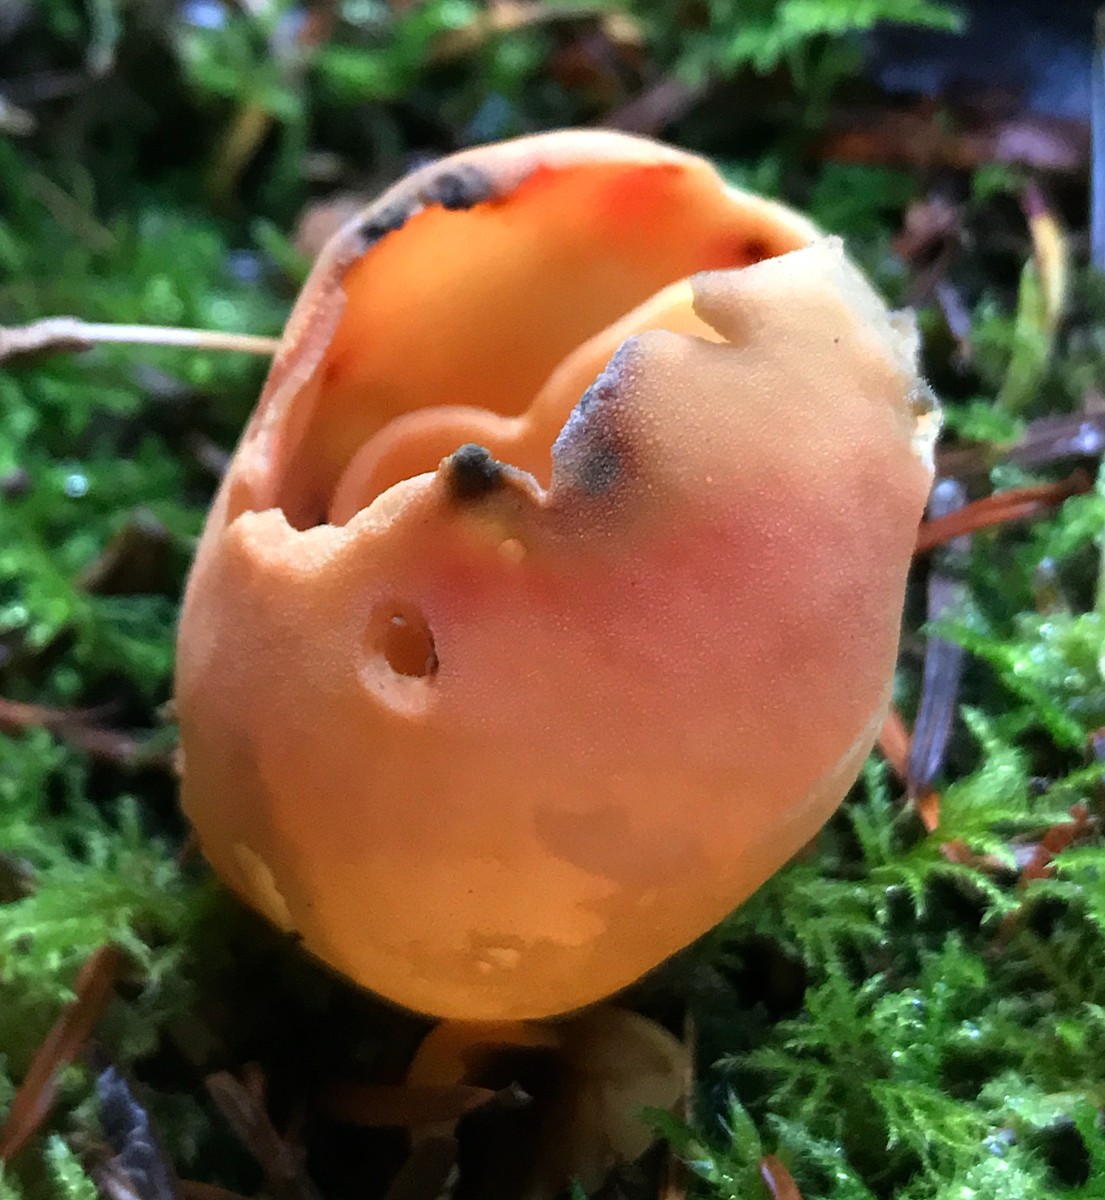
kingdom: Fungi
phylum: Ascomycota
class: Pezizomycetes
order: Pezizales
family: Otideaceae
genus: Otidea
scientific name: Otidea onotica
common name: æsel-ørebæger
